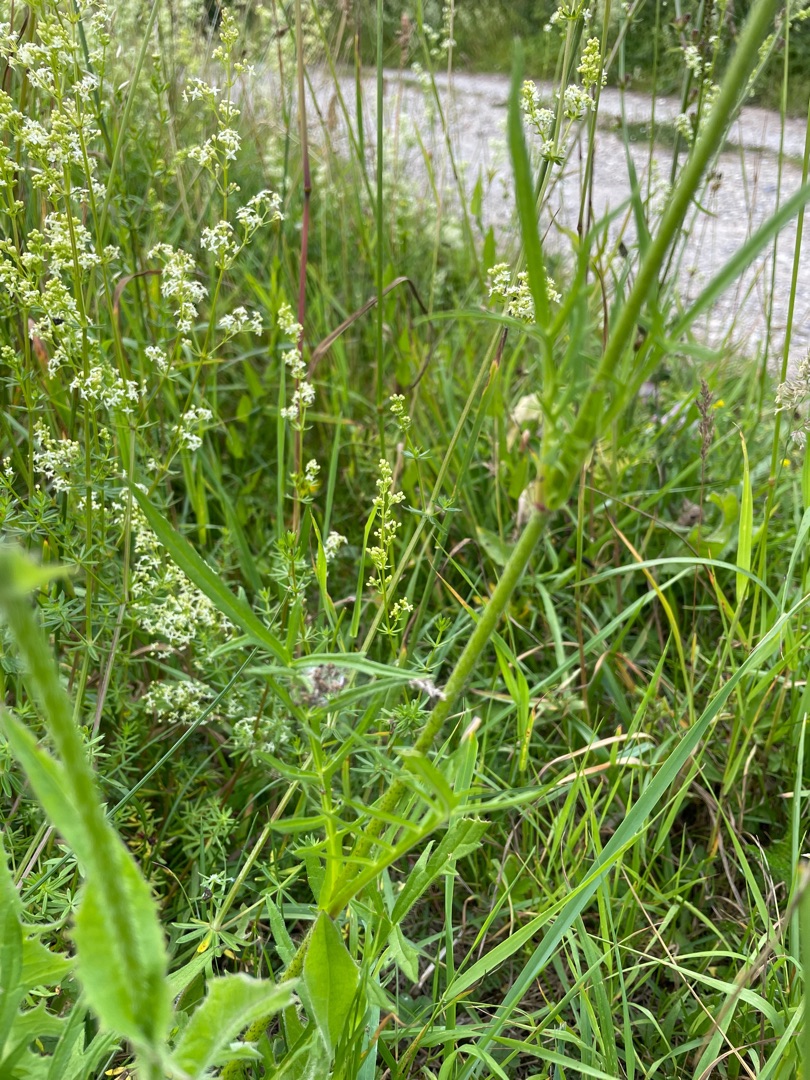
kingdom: Plantae
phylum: Tracheophyta
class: Magnoliopsida
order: Dipsacales
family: Caprifoliaceae
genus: Knautia
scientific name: Knautia arvensis
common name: Blåhat
